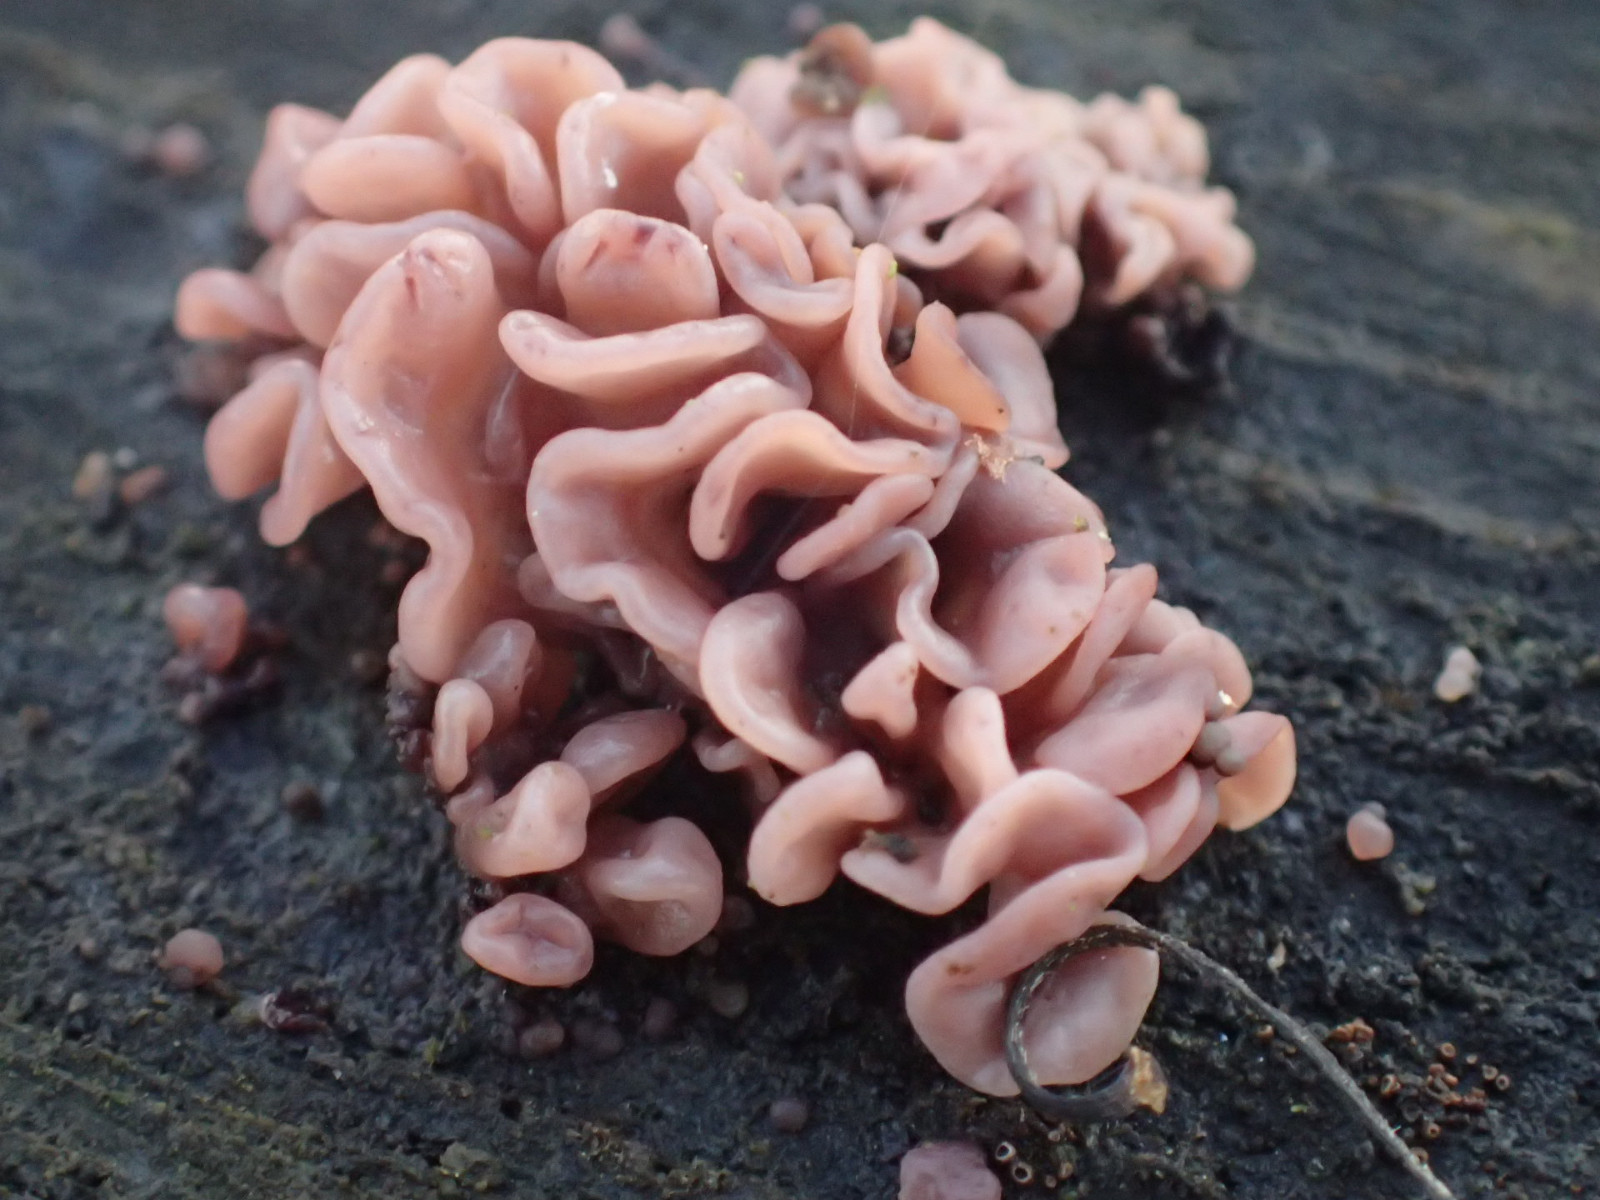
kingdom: Fungi
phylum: Ascomycota
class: Leotiomycetes
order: Helotiales
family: Gelatinodiscaceae
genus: Ascocoryne
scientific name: Ascocoryne sarcoides
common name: rødlilla sejskive
